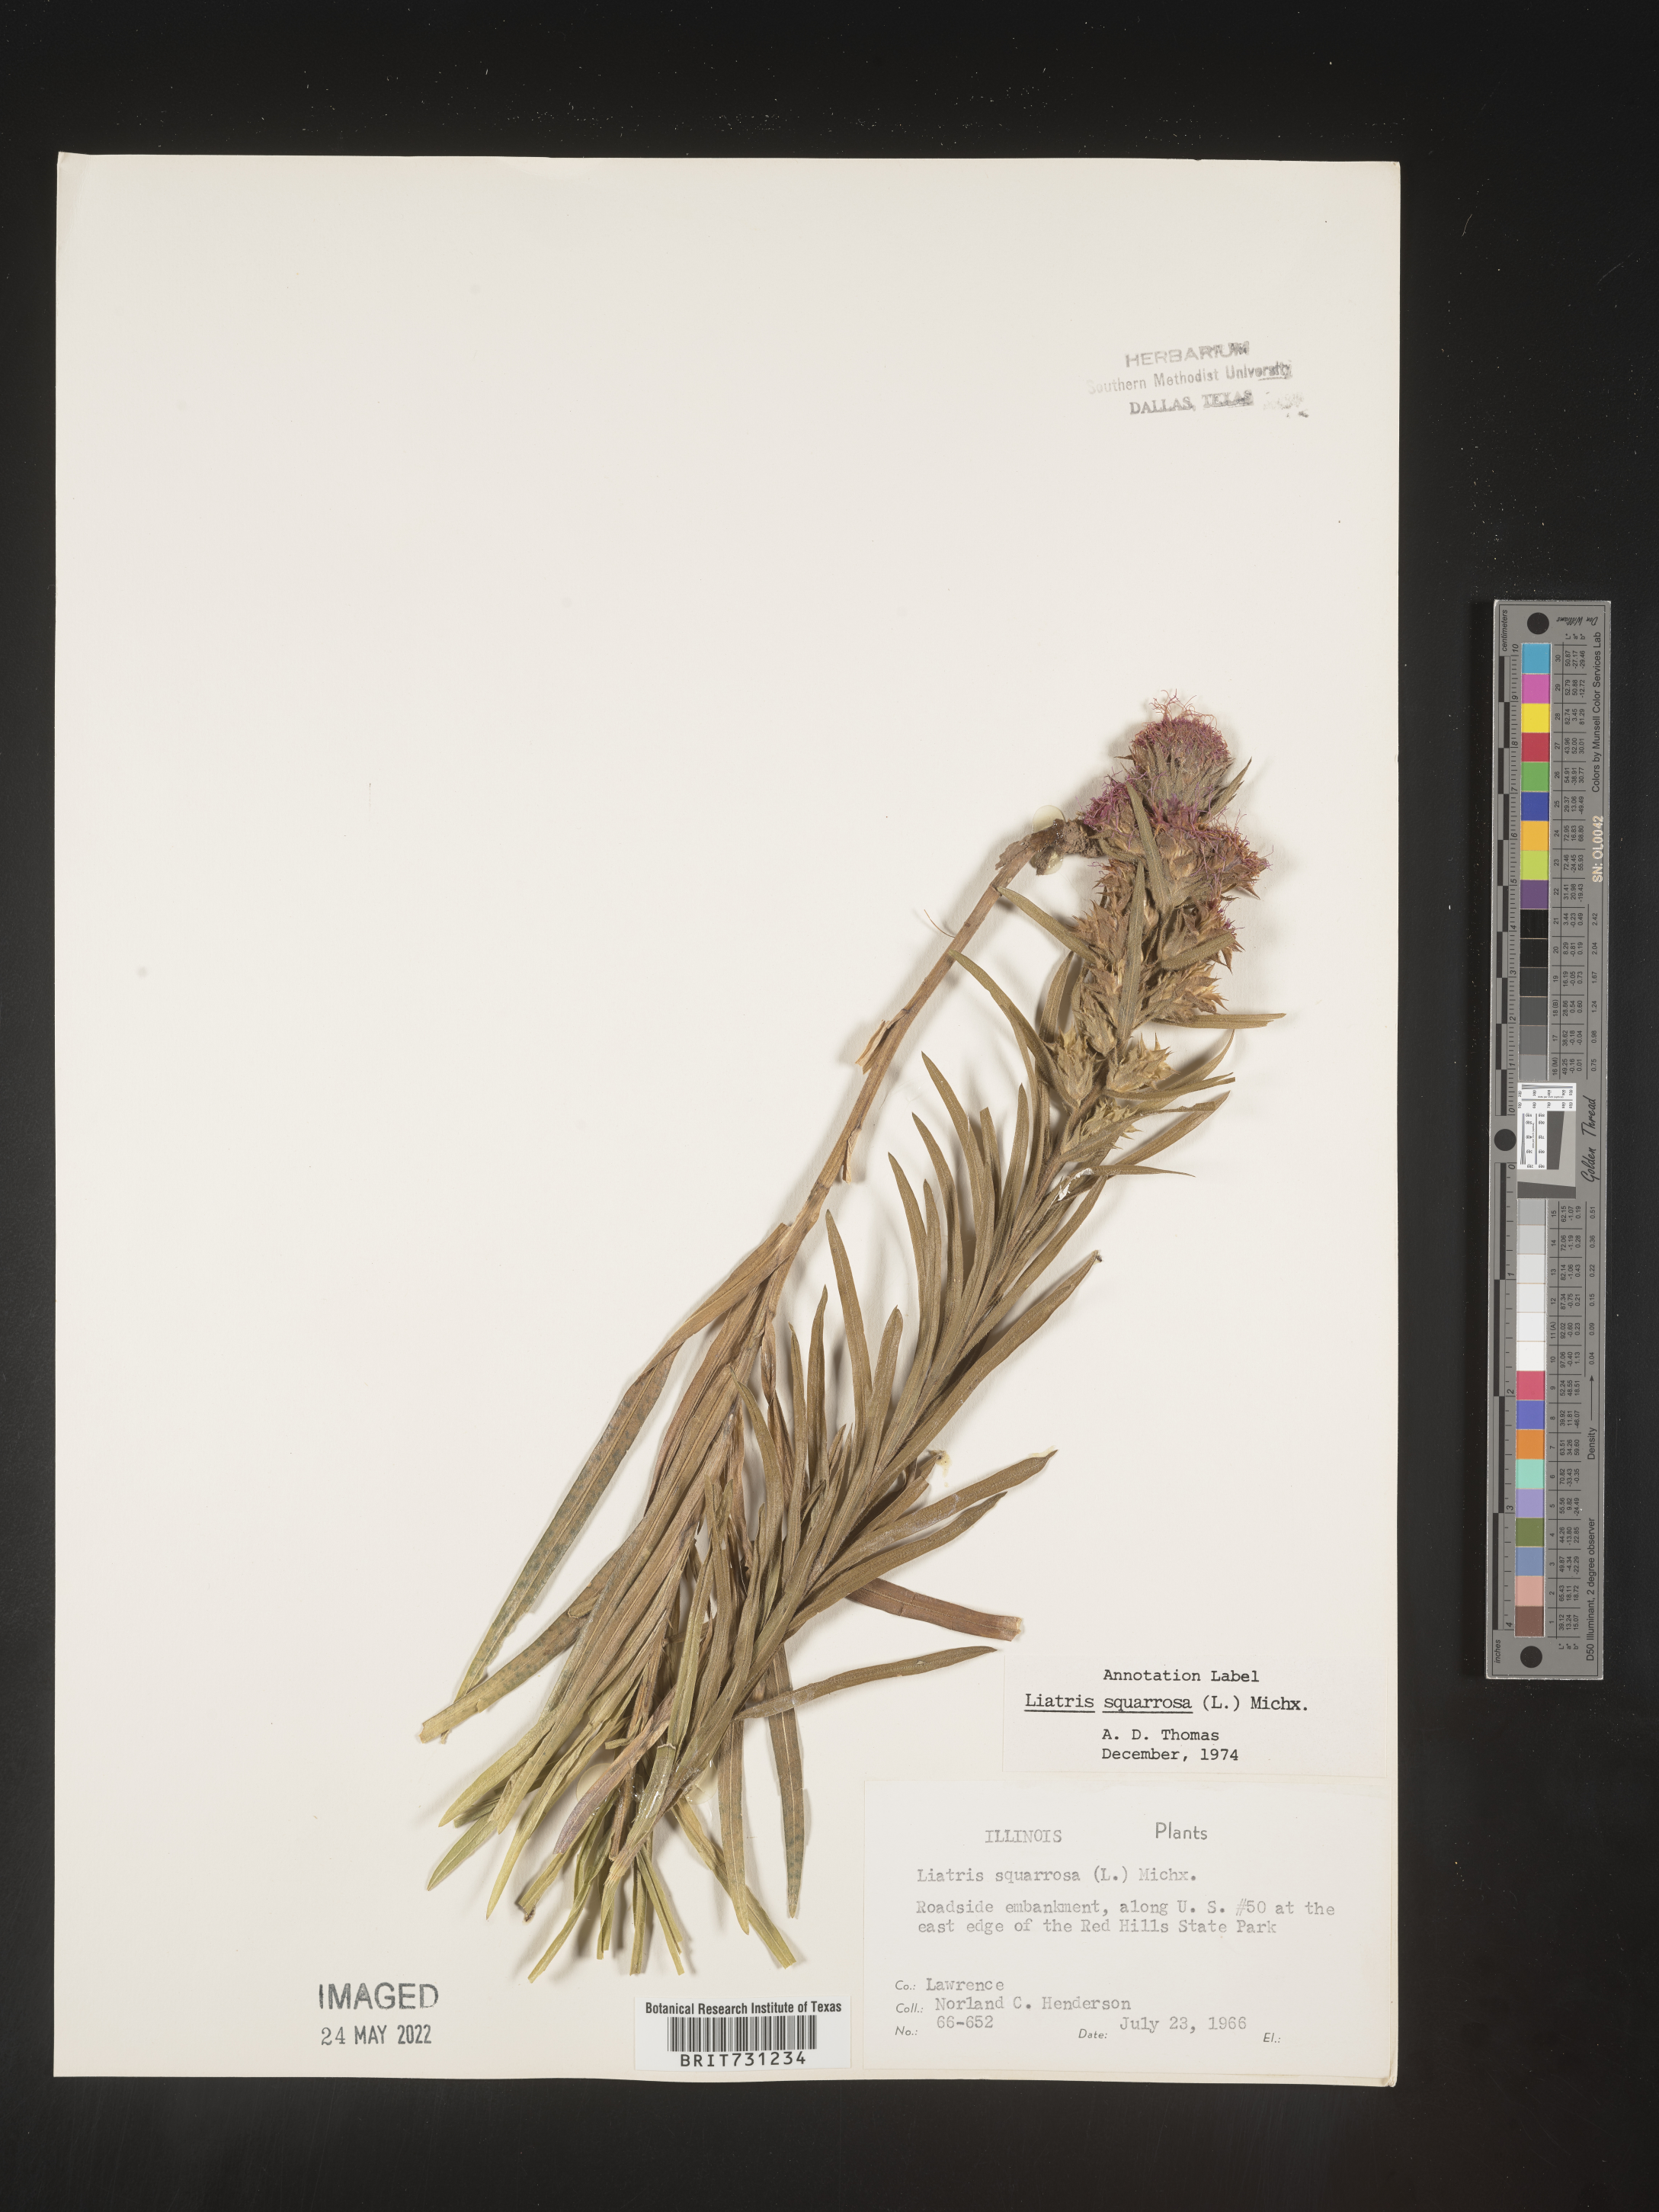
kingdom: Plantae
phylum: Tracheophyta
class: Magnoliopsida
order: Asterales
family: Asteraceae
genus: Liatris
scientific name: Liatris squarrosa
